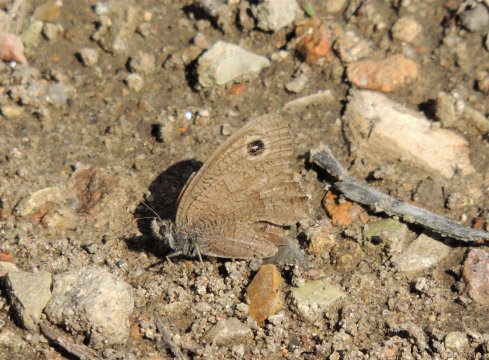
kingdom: Animalia
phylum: Arthropoda
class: Insecta
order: Lepidoptera
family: Nymphalidae
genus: Cercyonis
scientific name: Cercyonis pegala
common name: Common Wood-Nymph
